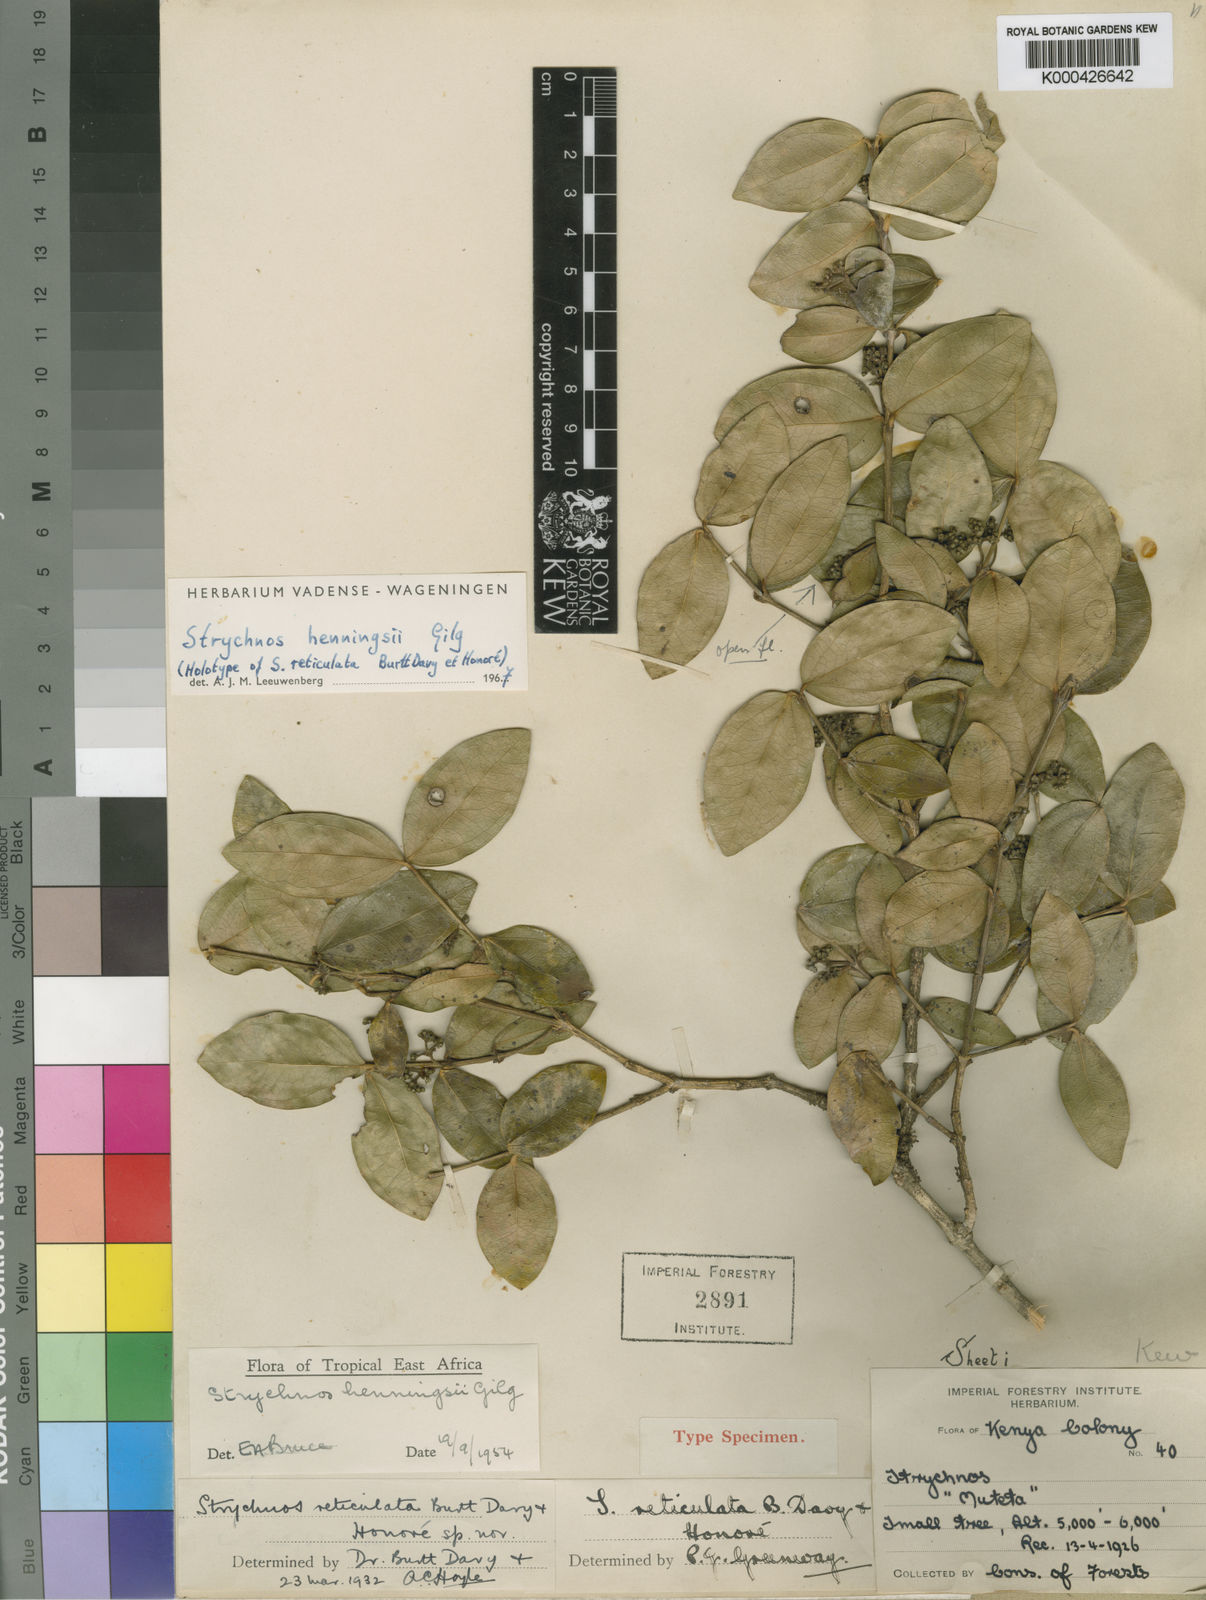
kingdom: Plantae
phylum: Tracheophyta
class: Magnoliopsida
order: Gentianales
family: Loganiaceae
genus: Strychnos
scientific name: Strychnos henningsii
